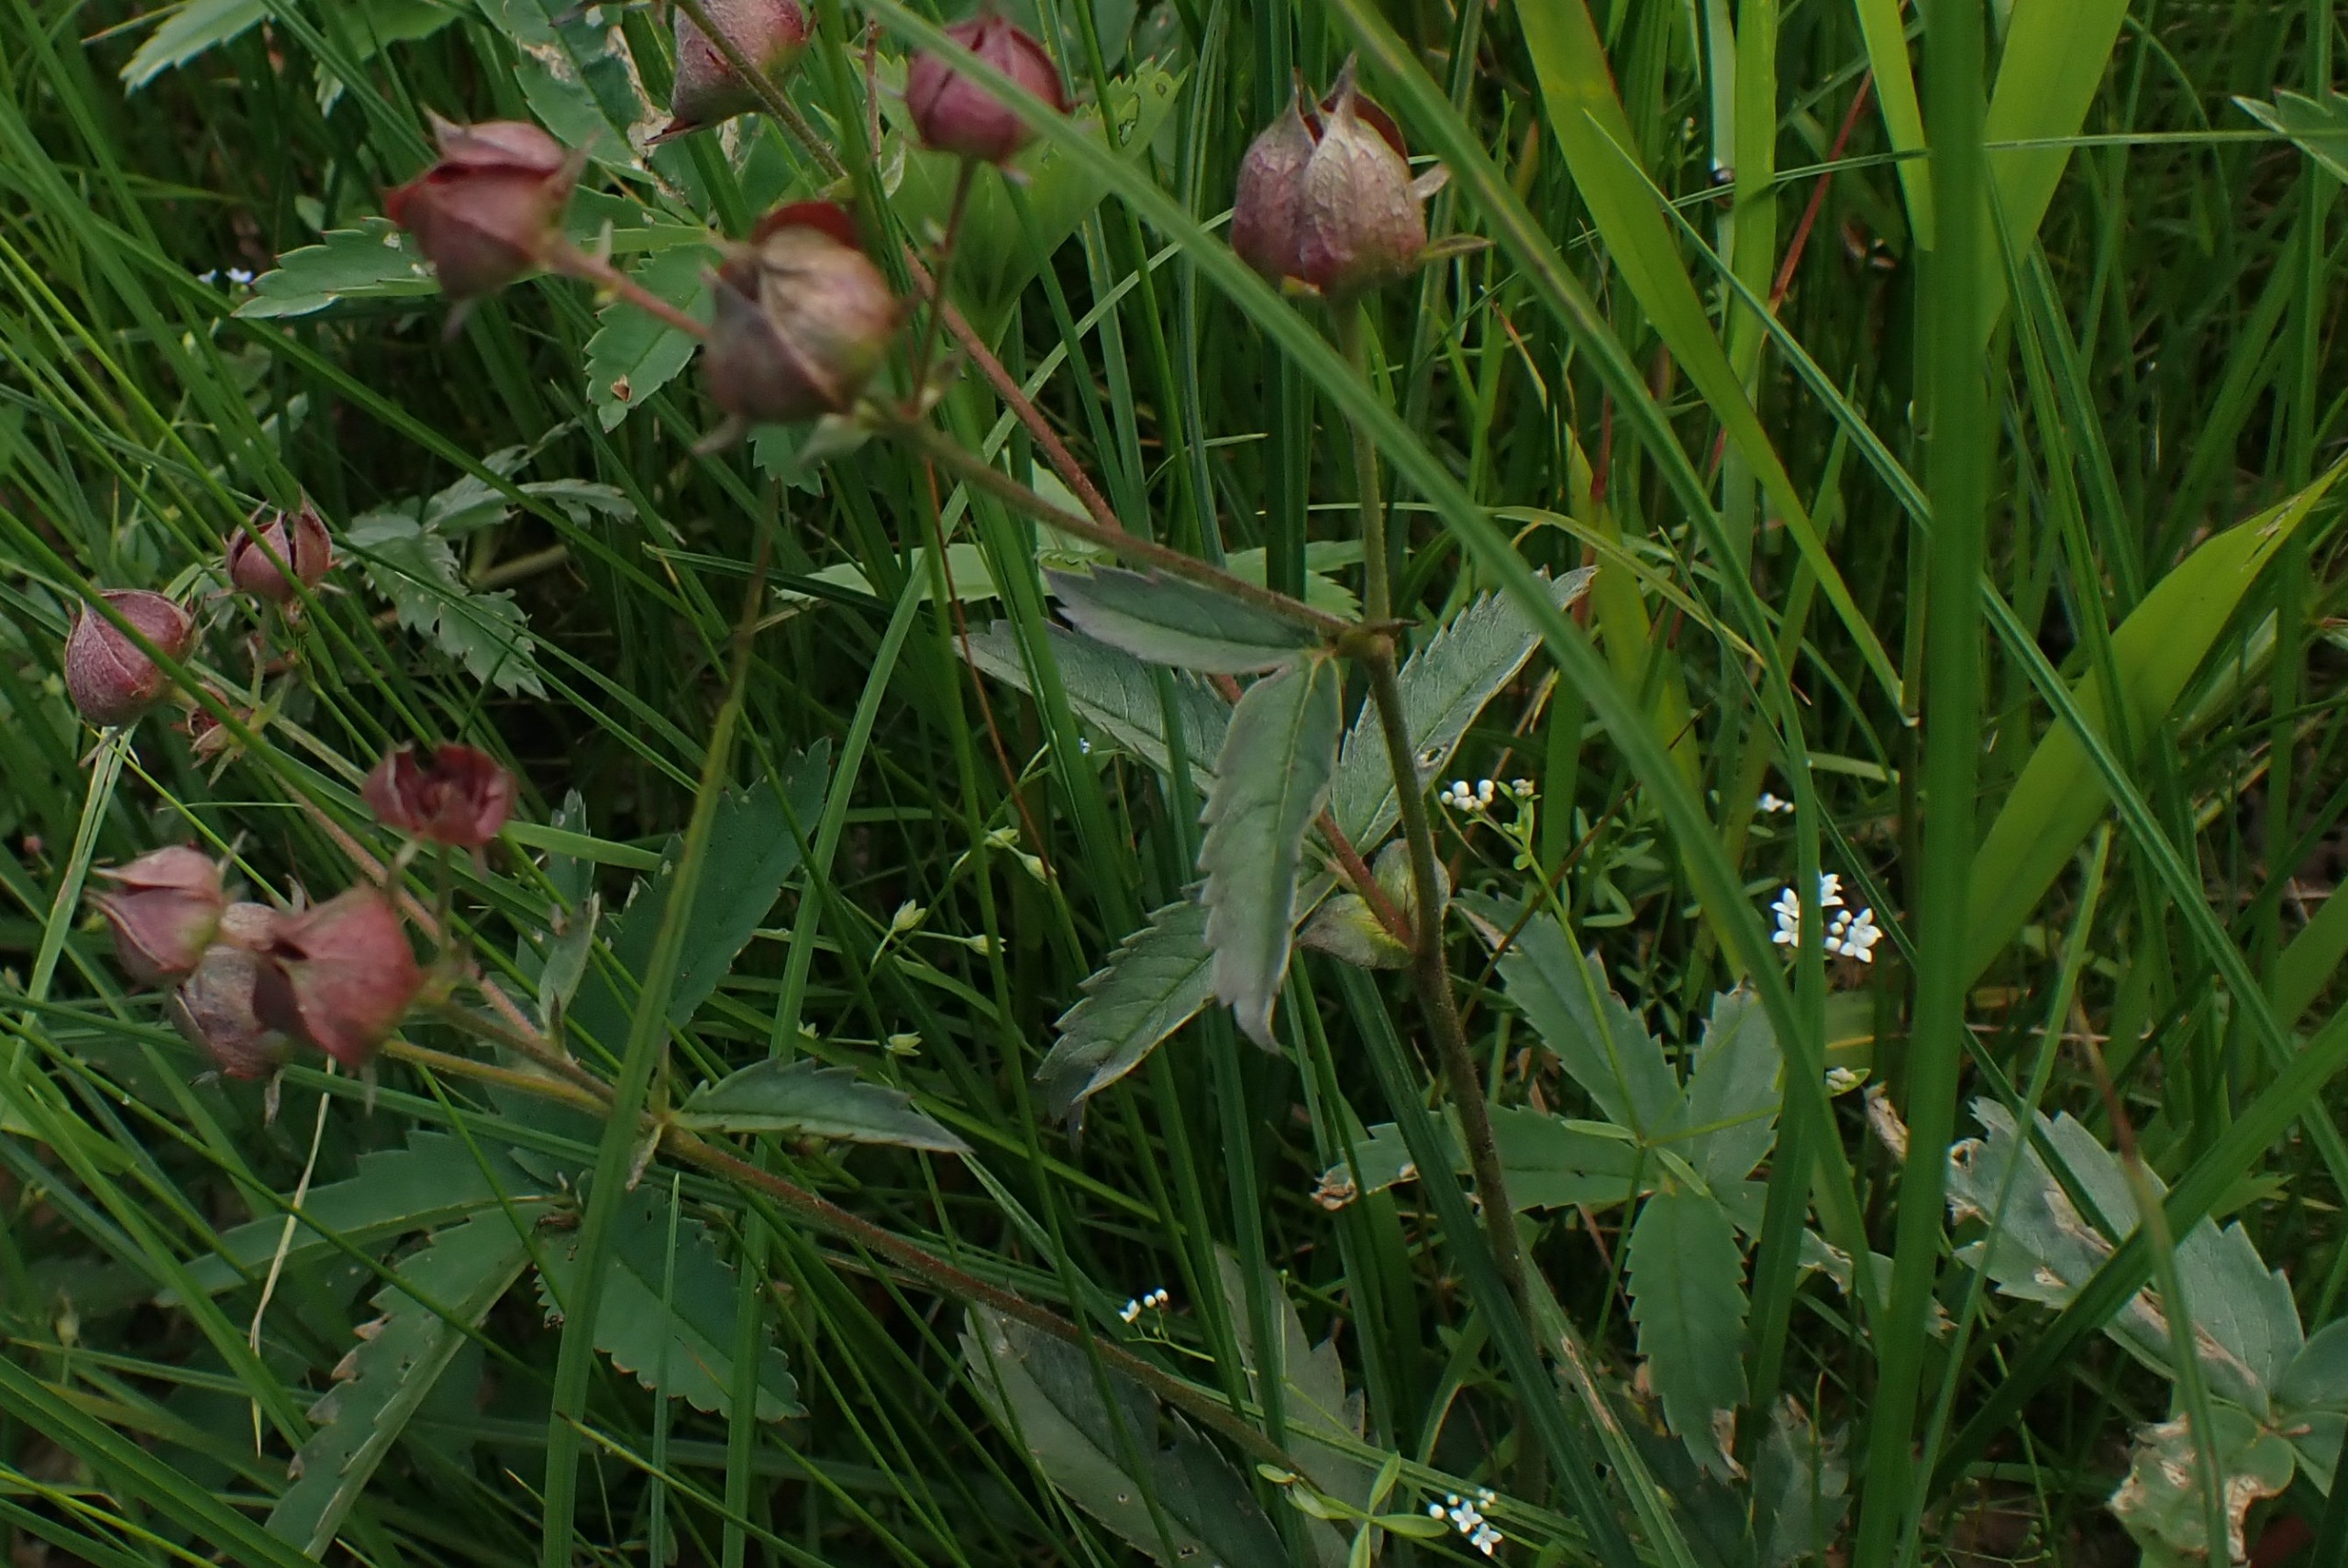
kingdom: Plantae
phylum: Tracheophyta
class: Magnoliopsida
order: Rosales
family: Rosaceae
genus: Comarum
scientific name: Comarum palustre
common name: Kragefod
